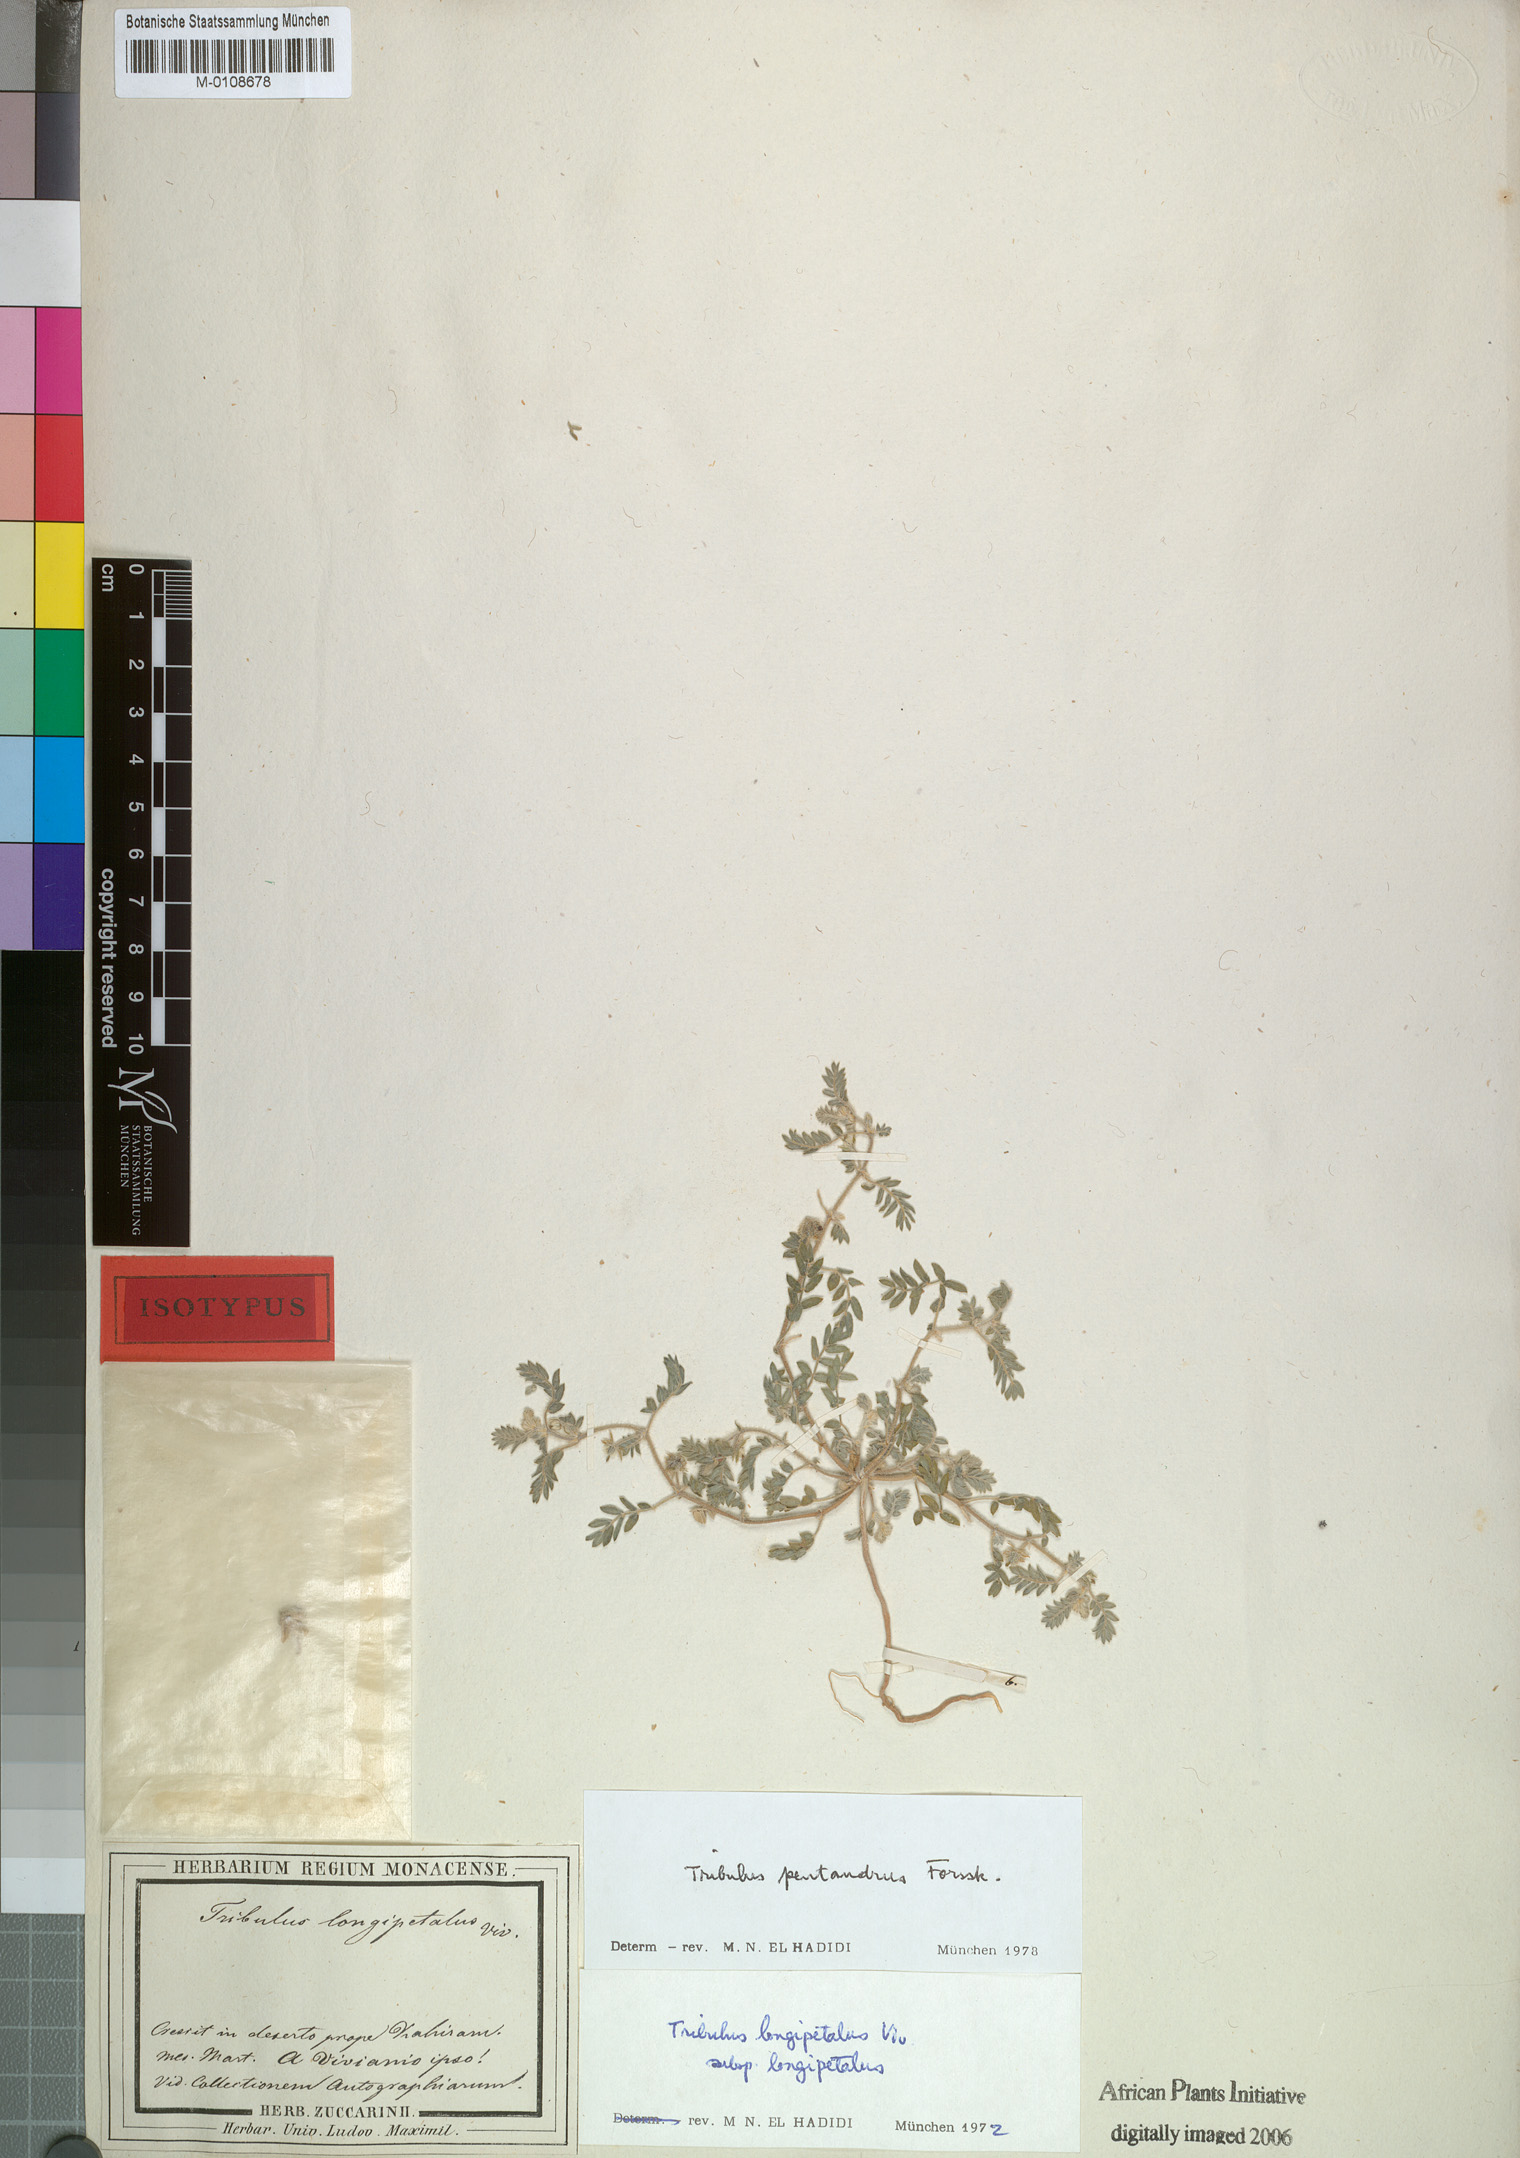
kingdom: Plantae
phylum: Tracheophyta
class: Magnoliopsida
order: Zygophyllales
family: Zygophyllaceae
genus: Tribulus
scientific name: Tribulus pentandrus
